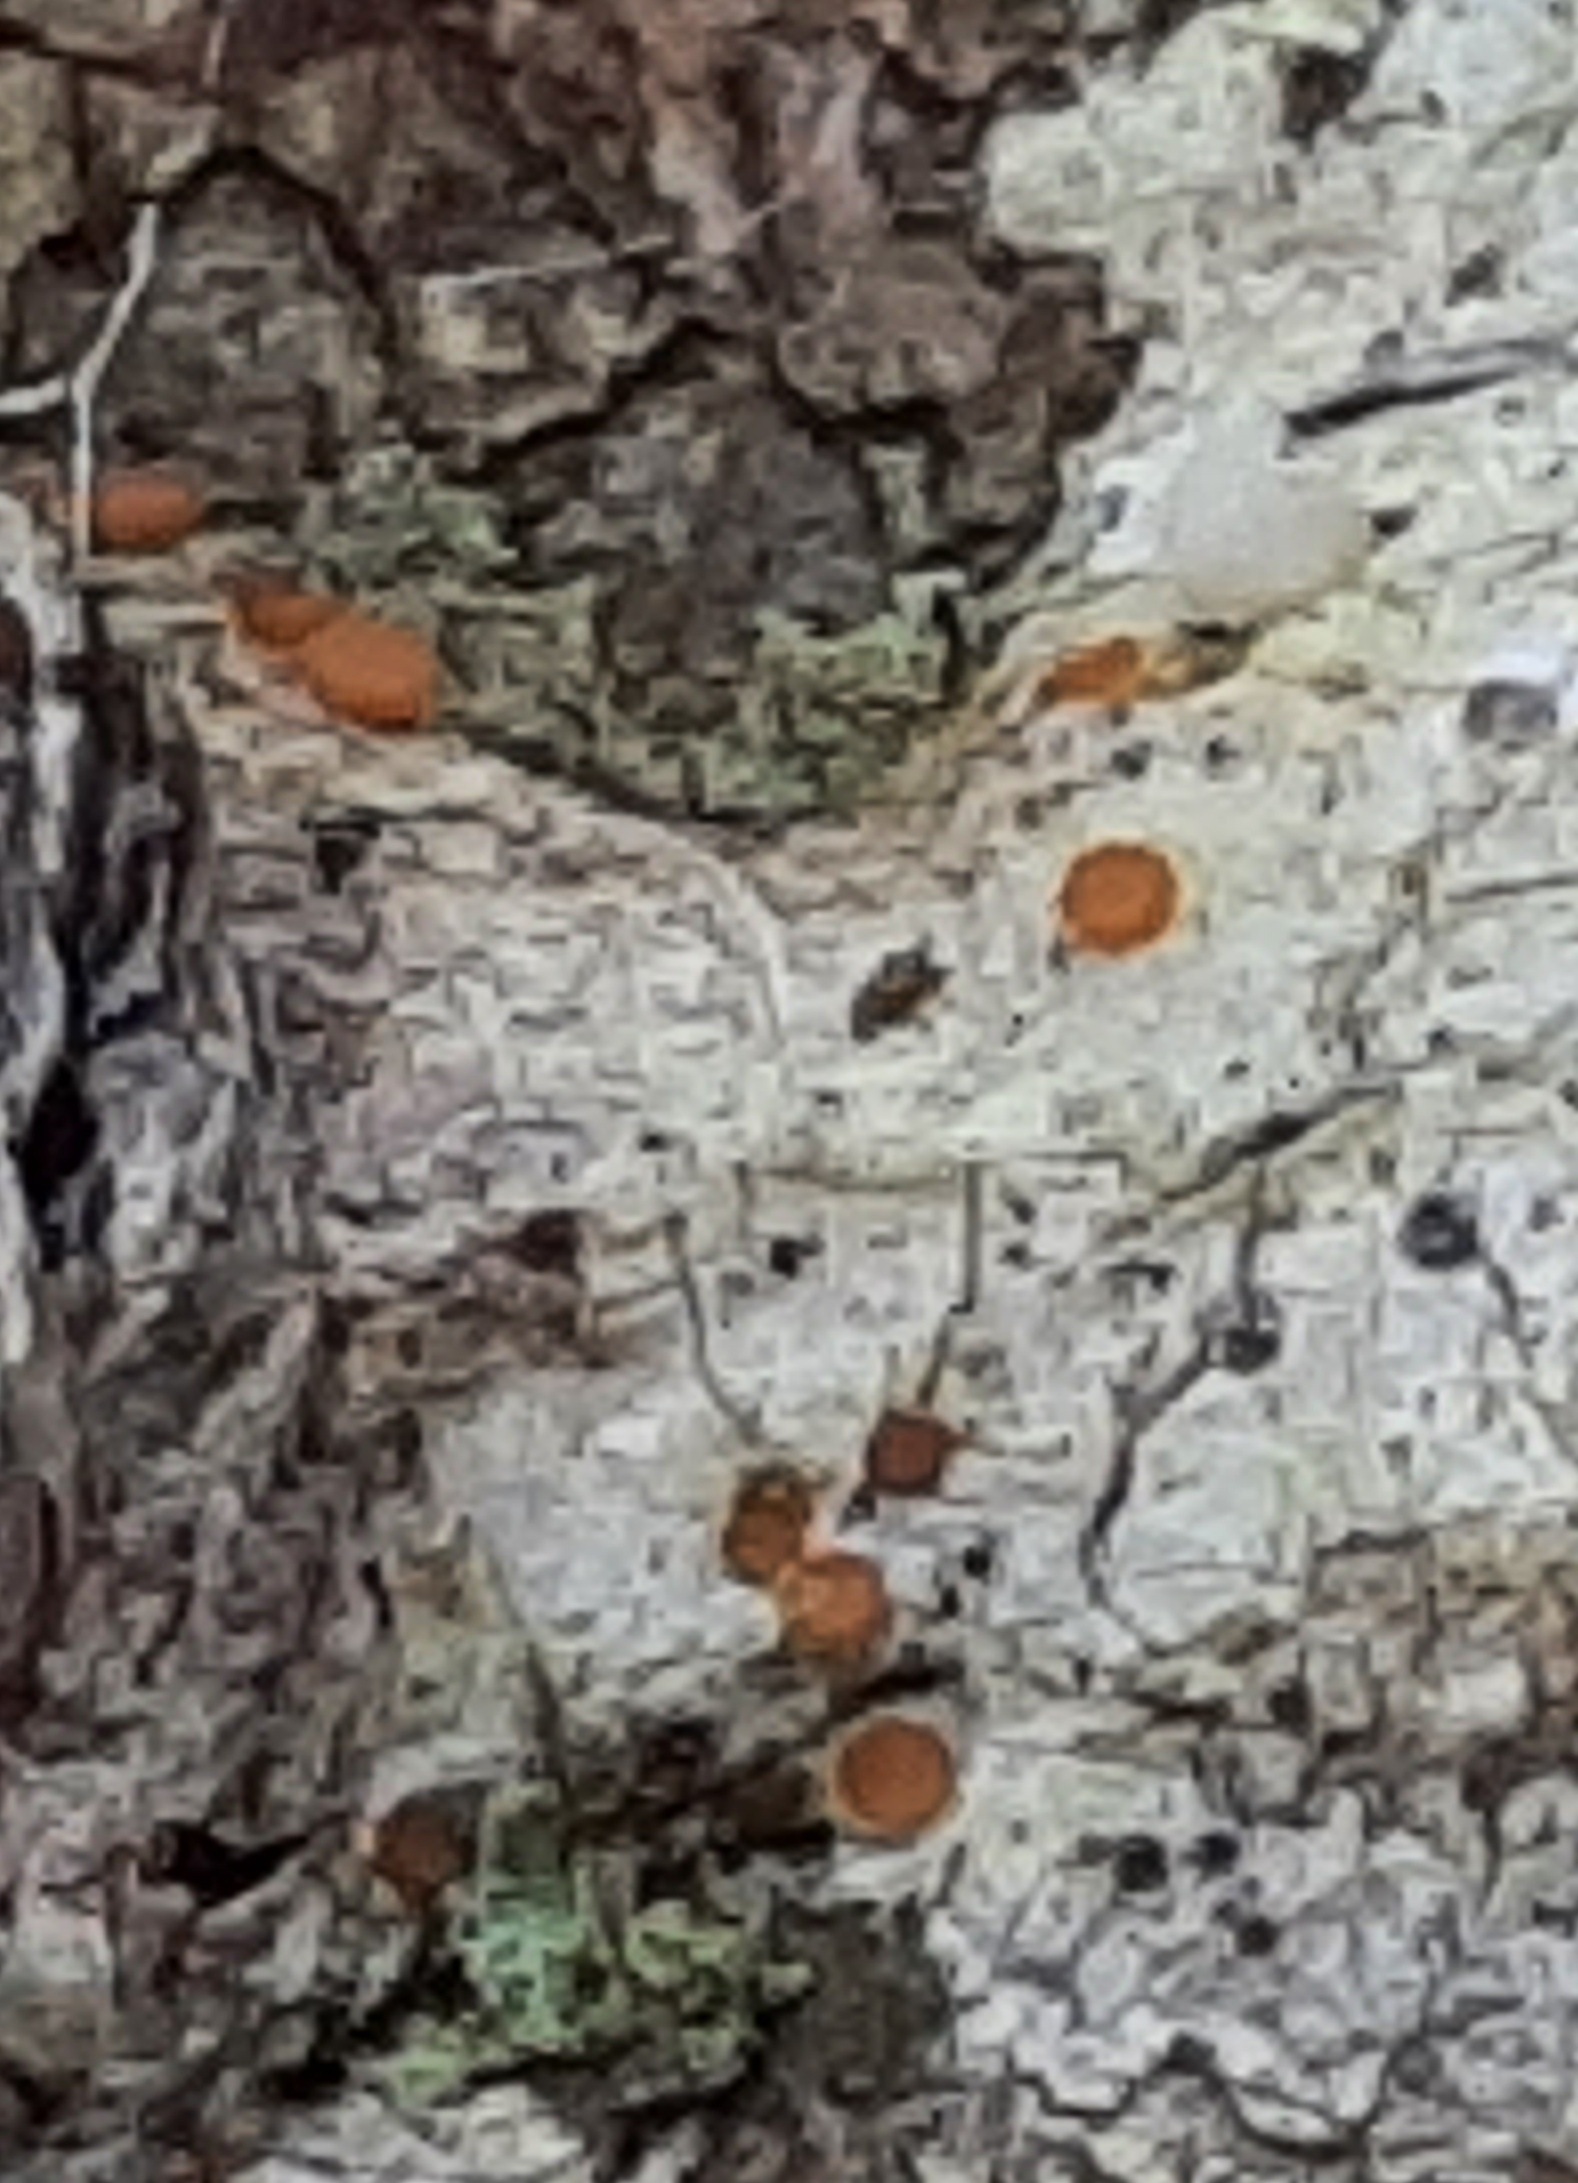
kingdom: Fungi
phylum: Ascomycota
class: Sareomycetes
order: Sareales
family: Sareaceae
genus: Sarea
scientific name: Sarea resinae
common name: orangegul harpiksskive
